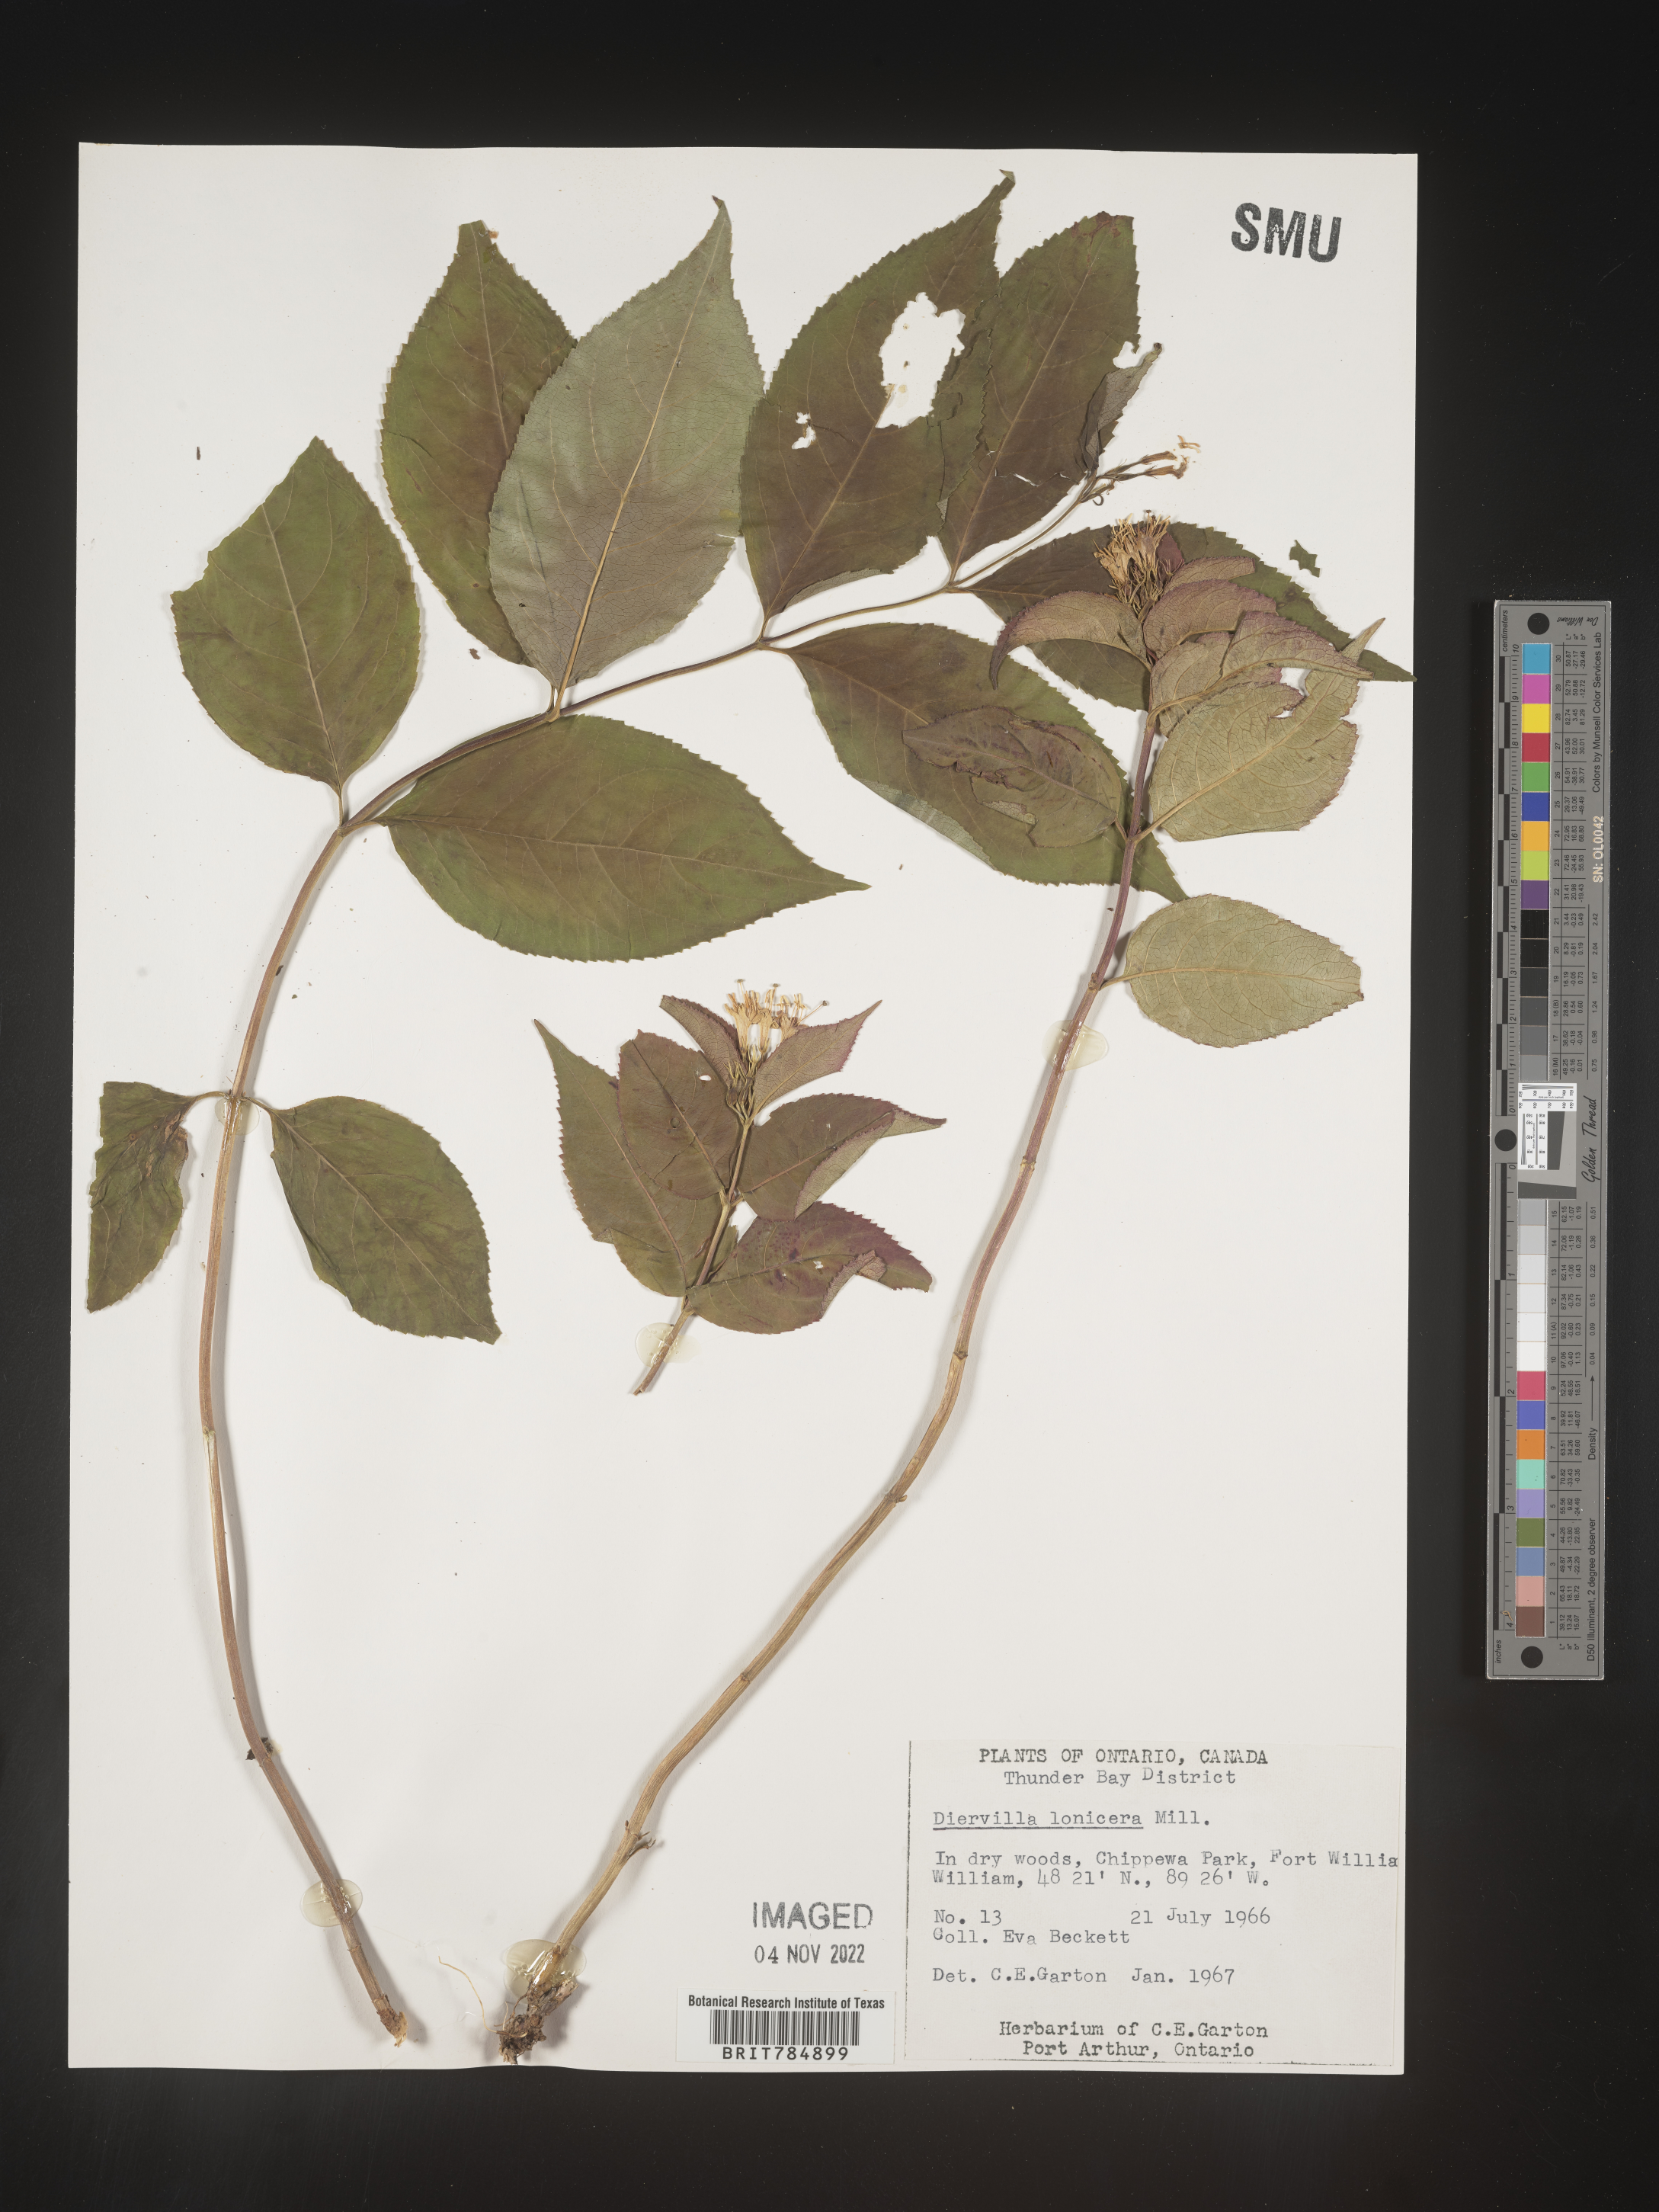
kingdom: Plantae
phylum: Tracheophyta
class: Magnoliopsida
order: Dipsacales
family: Caprifoliaceae
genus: Diervilla
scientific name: Diervilla lonicera
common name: Bush-honeysuckle
